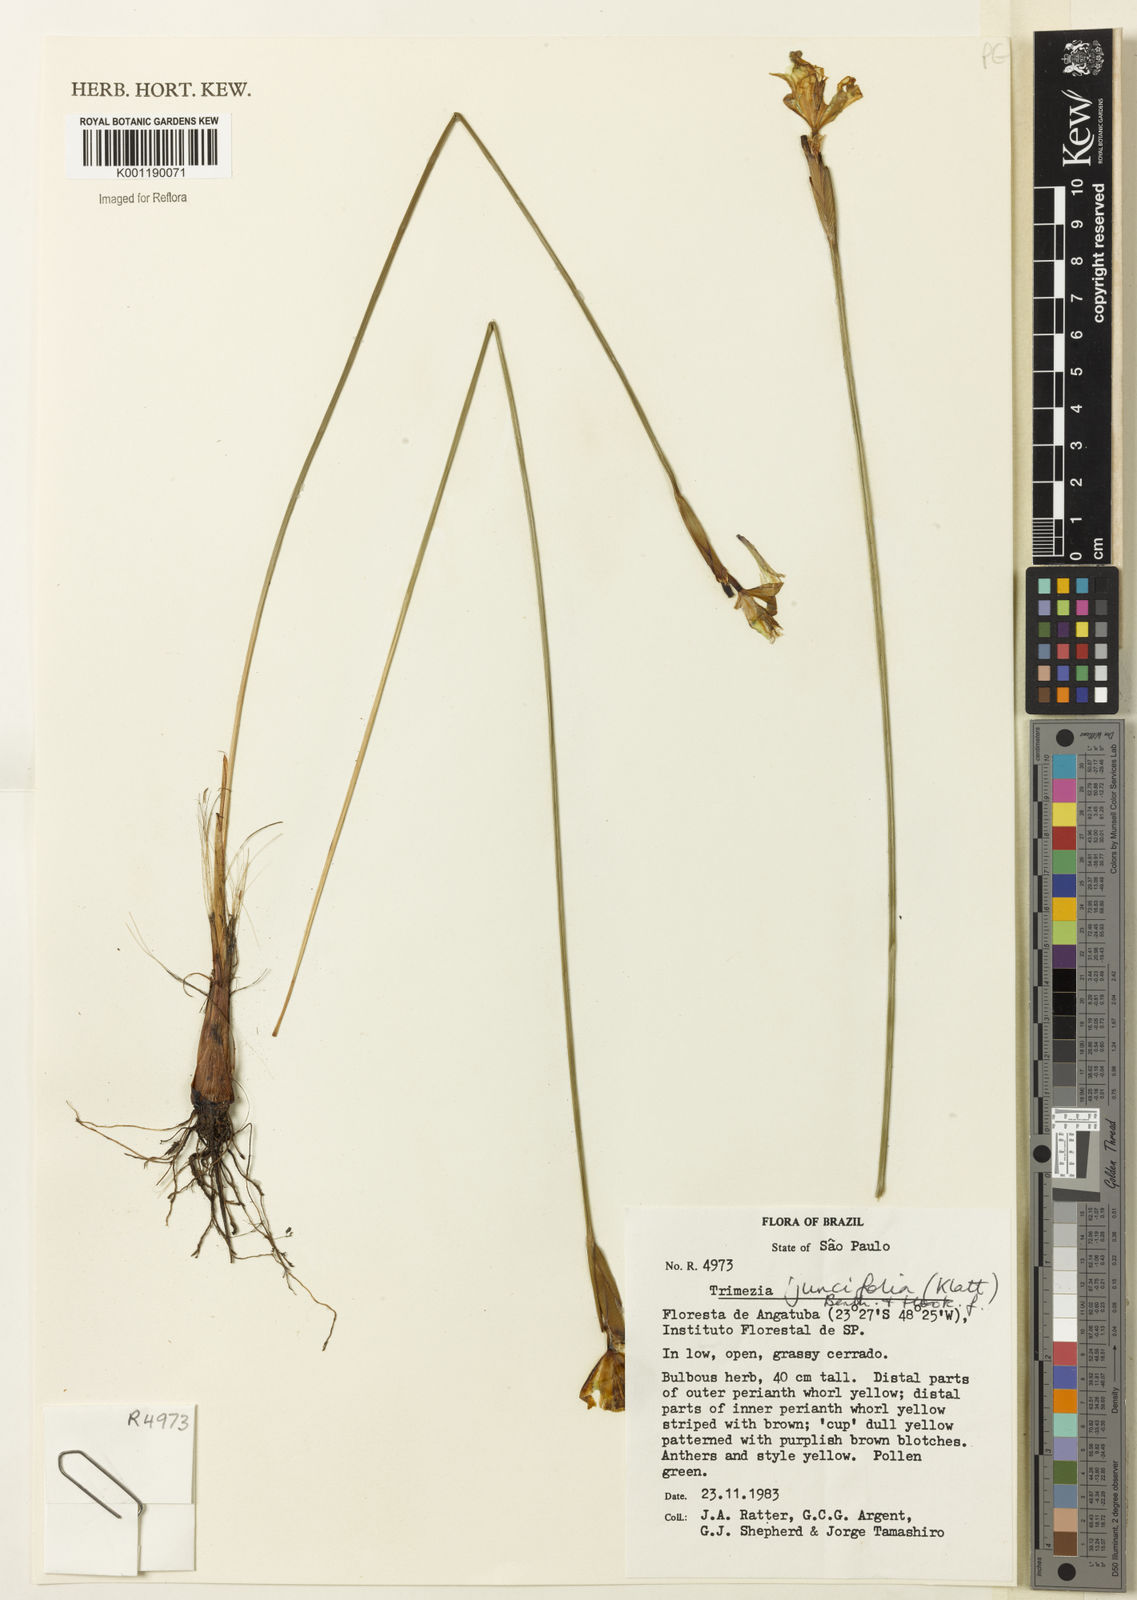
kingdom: Plantae
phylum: Tracheophyta
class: Liliopsida
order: Asparagales
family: Iridaceae
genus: Trimezia
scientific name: Trimezia juncifolia
